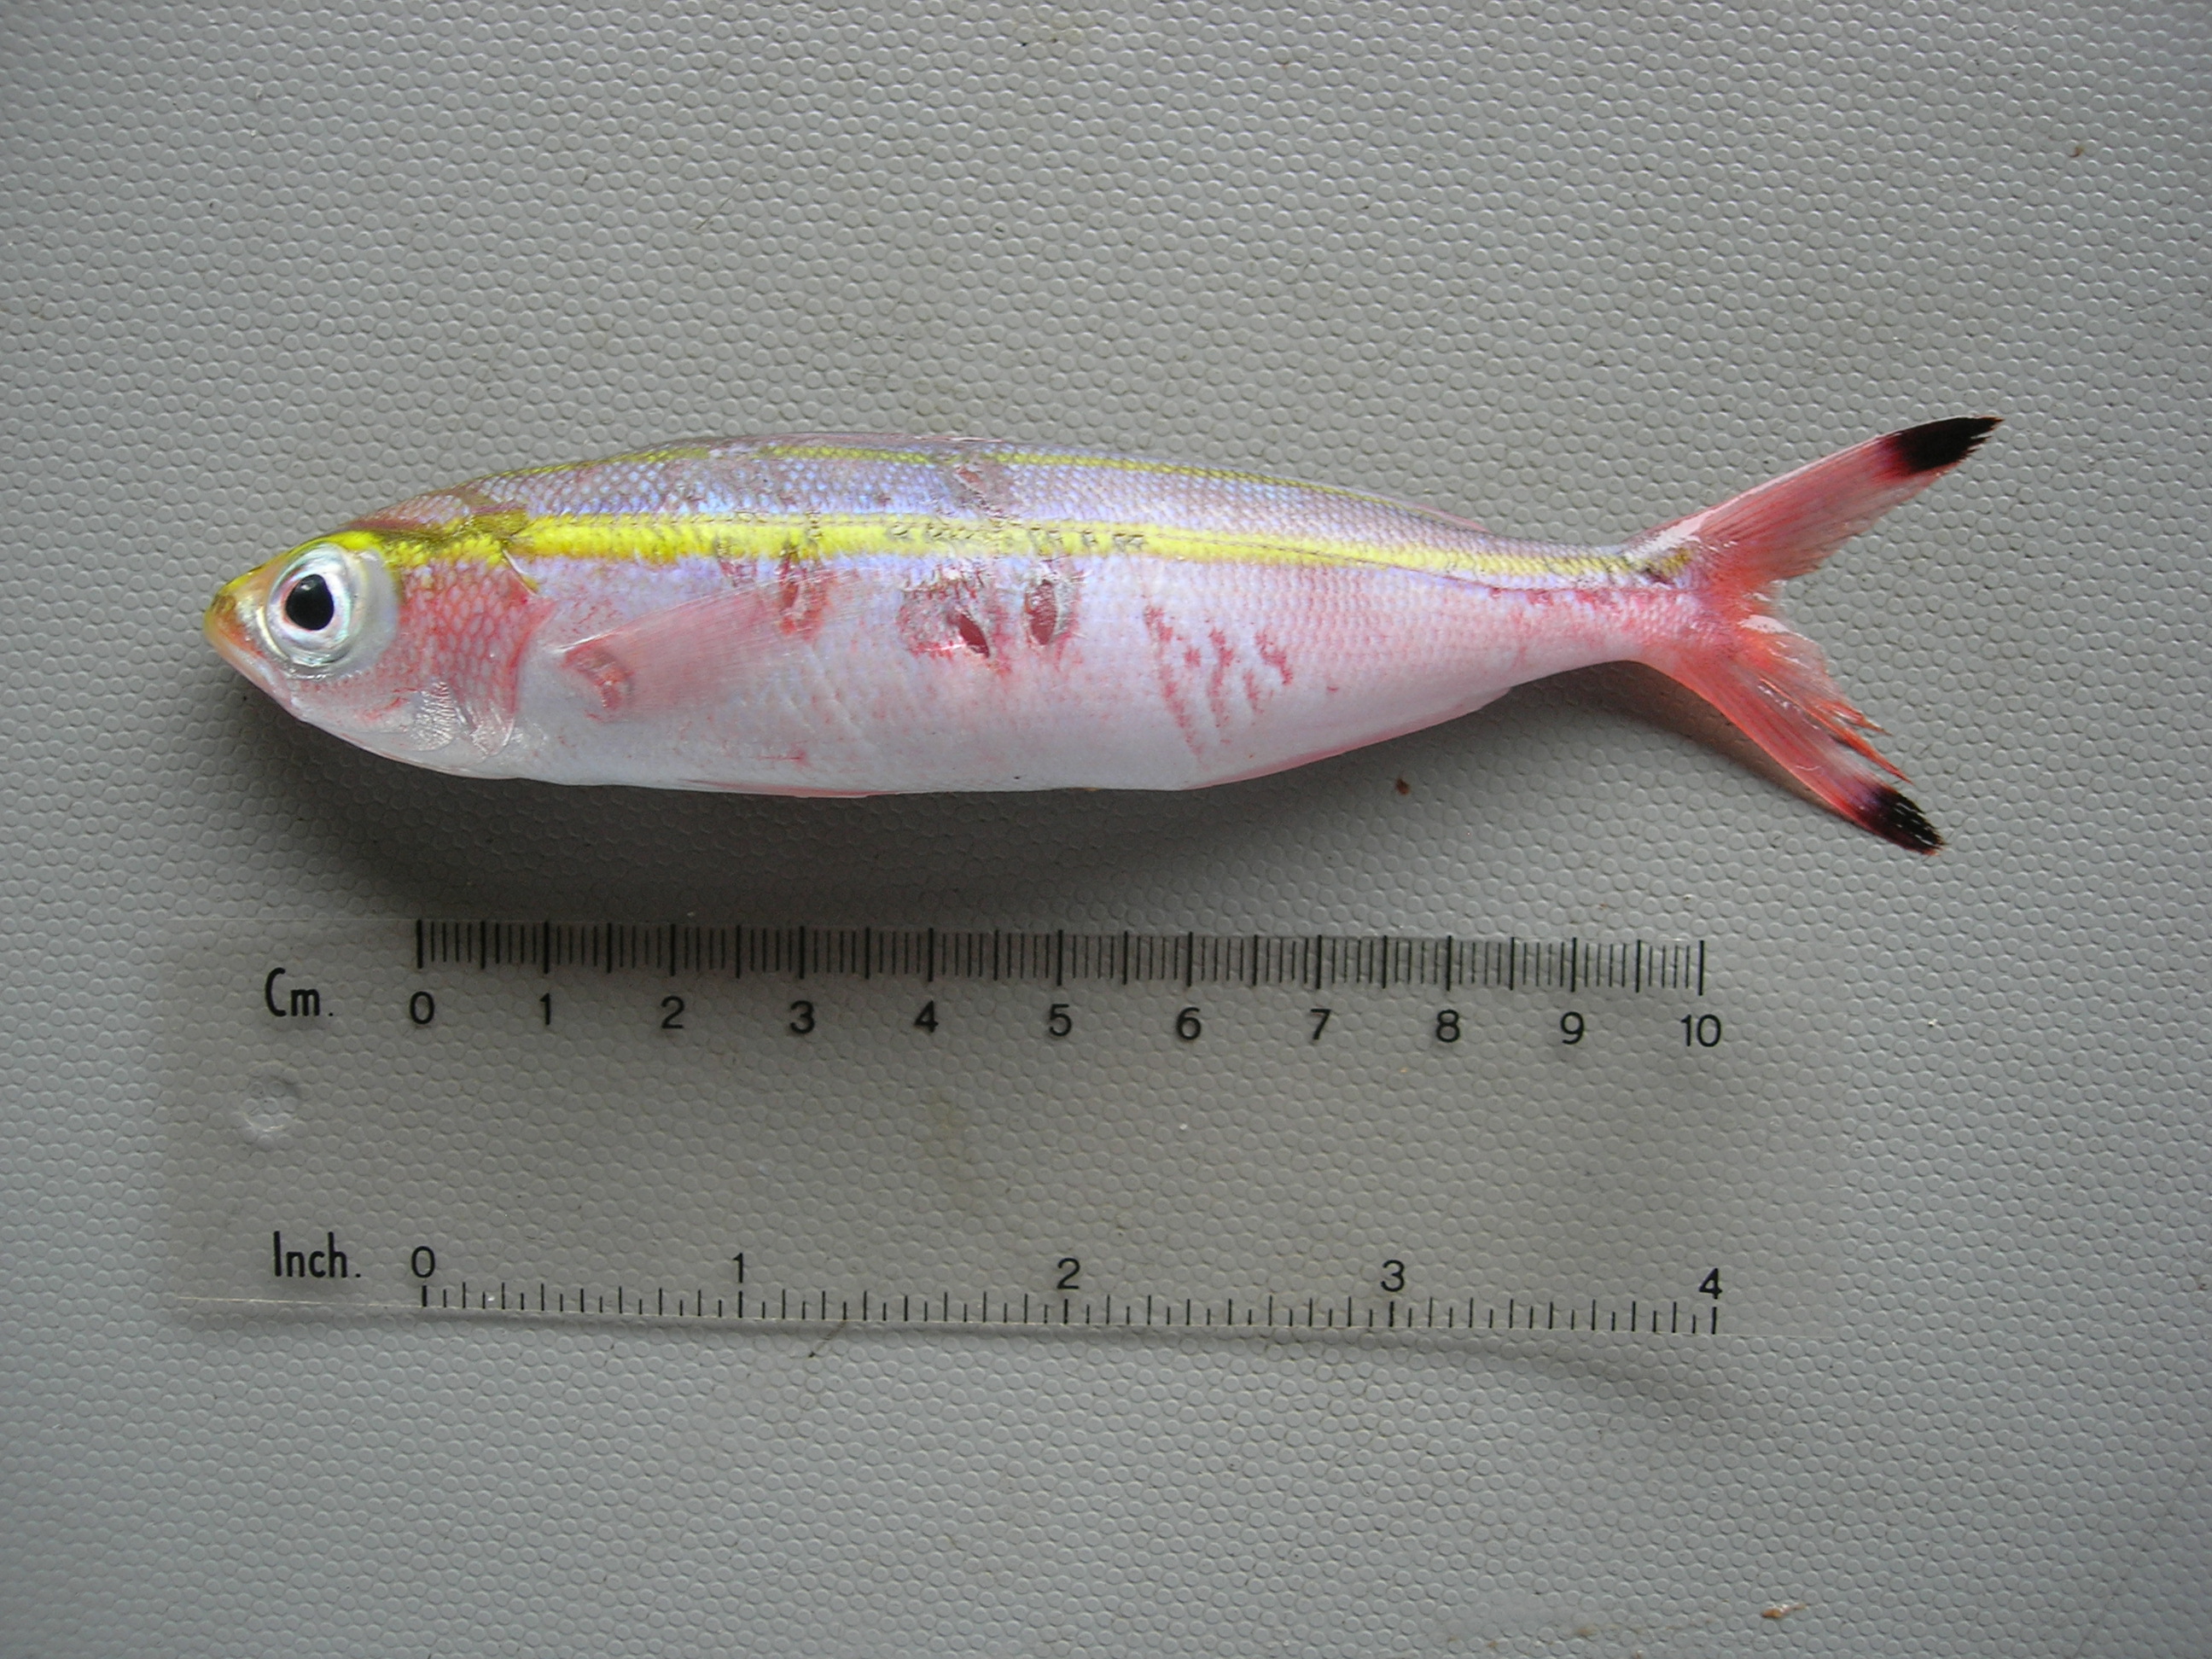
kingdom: Animalia
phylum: Chordata
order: Perciformes
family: Caesionidae
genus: Pterocaesio
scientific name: Pterocaesio chrysozona
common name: Goldband fusilier
